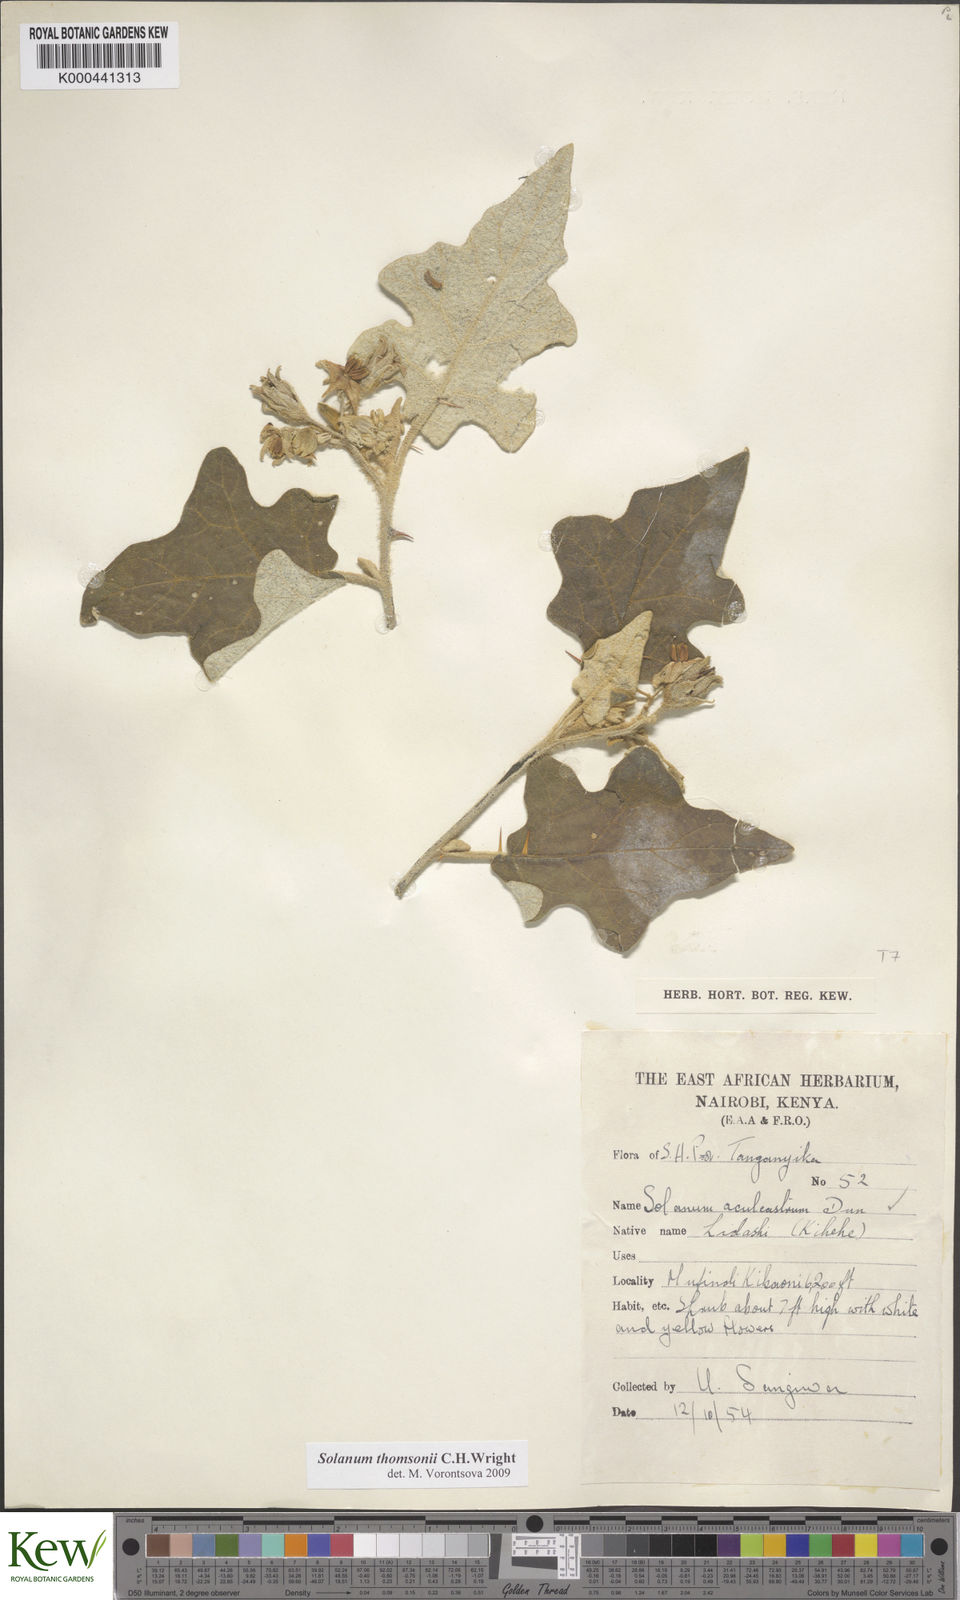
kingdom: Plantae
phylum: Tracheophyta
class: Magnoliopsida
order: Solanales
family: Solanaceae
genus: Solanum
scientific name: Solanum aculeastrum
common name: Goat bitter-apple
